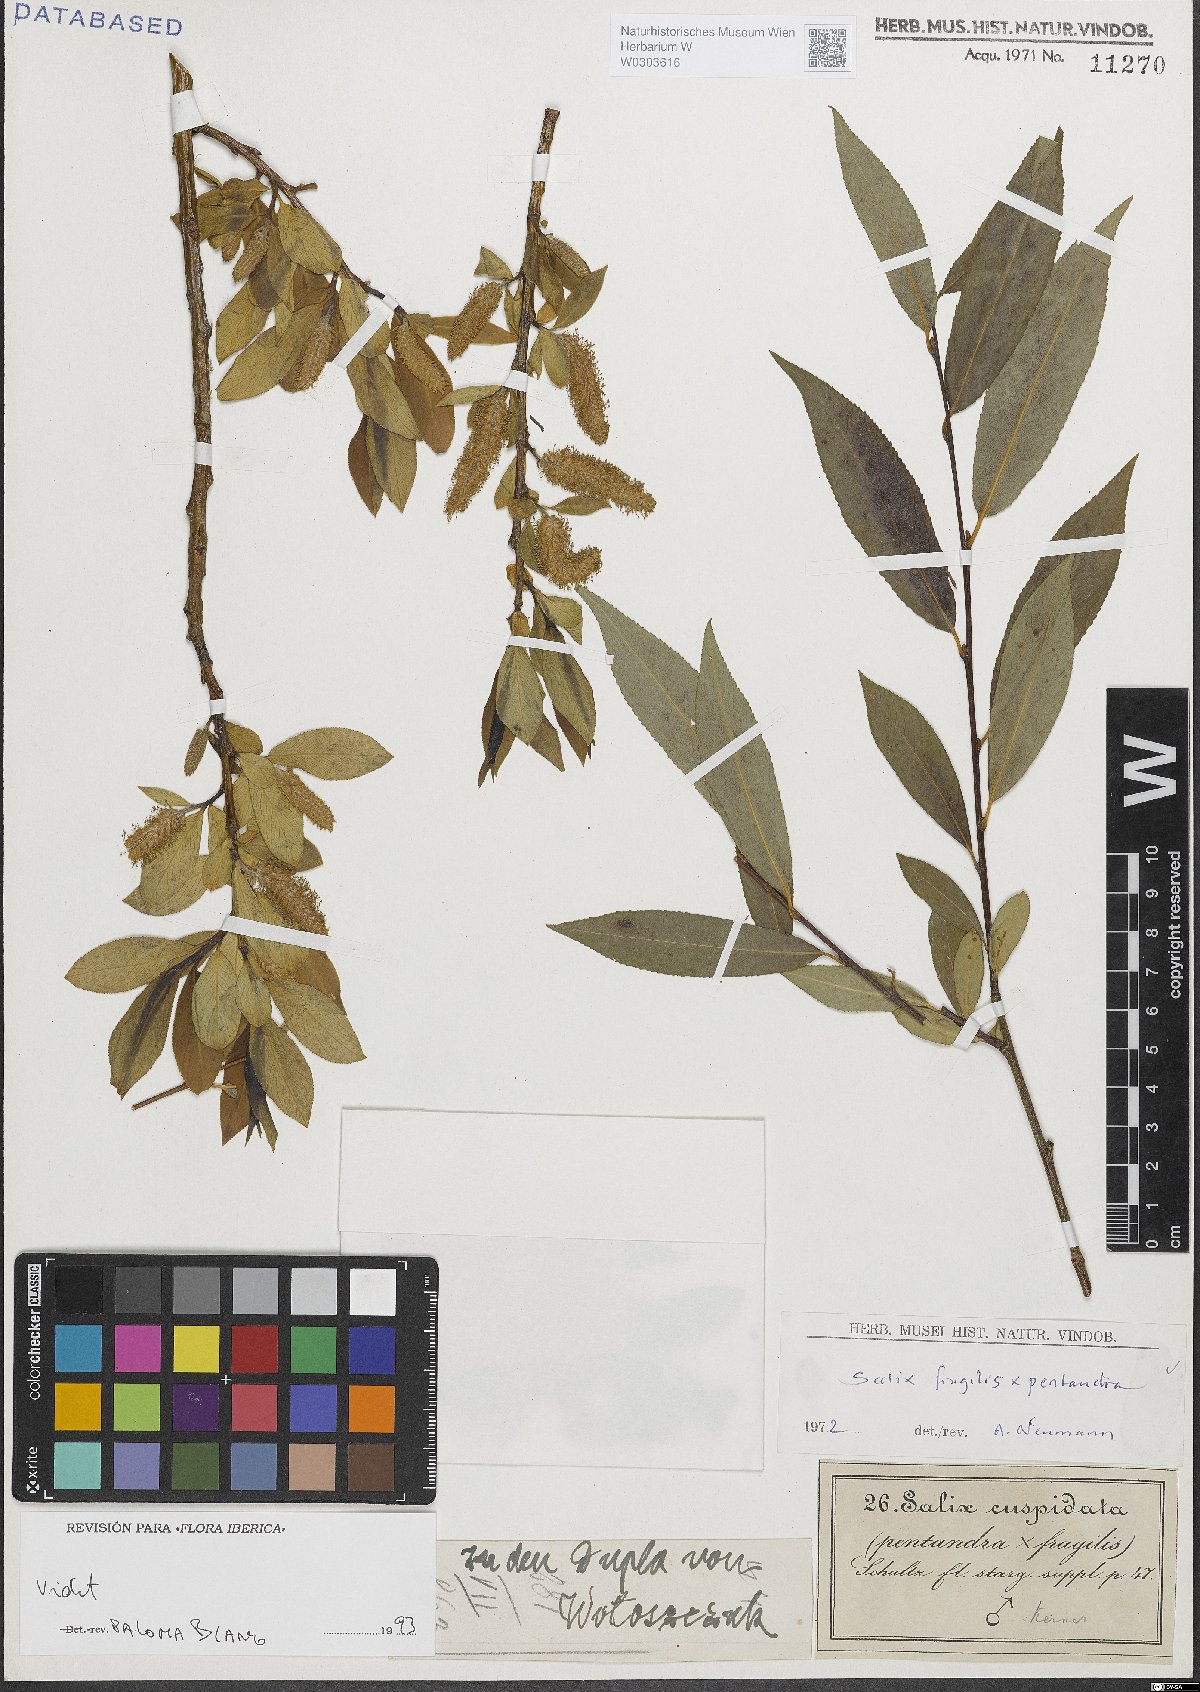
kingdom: Plantae
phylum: Tracheophyta
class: Magnoliopsida
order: Malpighiales
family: Salicaceae
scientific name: Salicaceae
